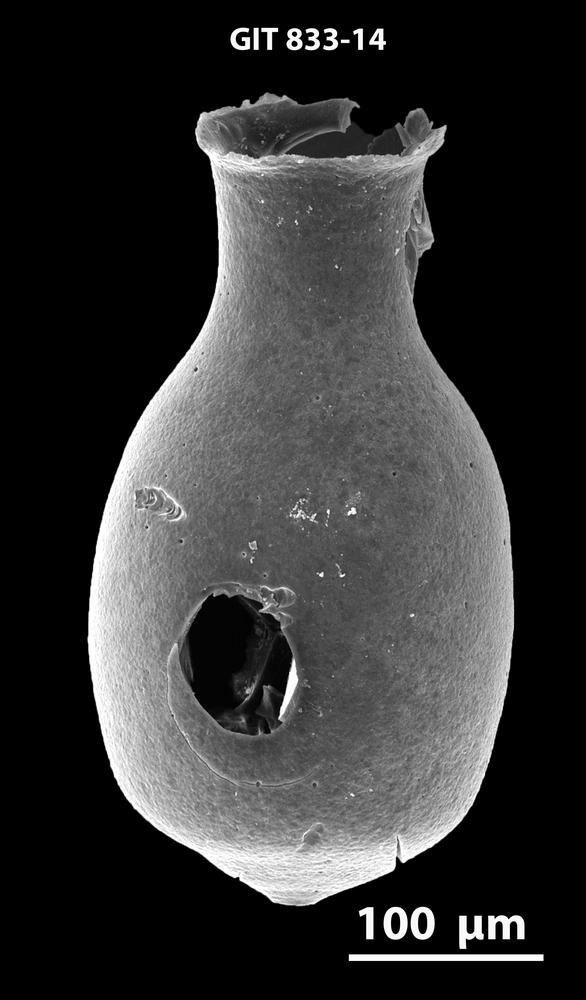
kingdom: Animalia
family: Lagenochitinidae
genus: Lagenochitina
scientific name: Lagenochitina
